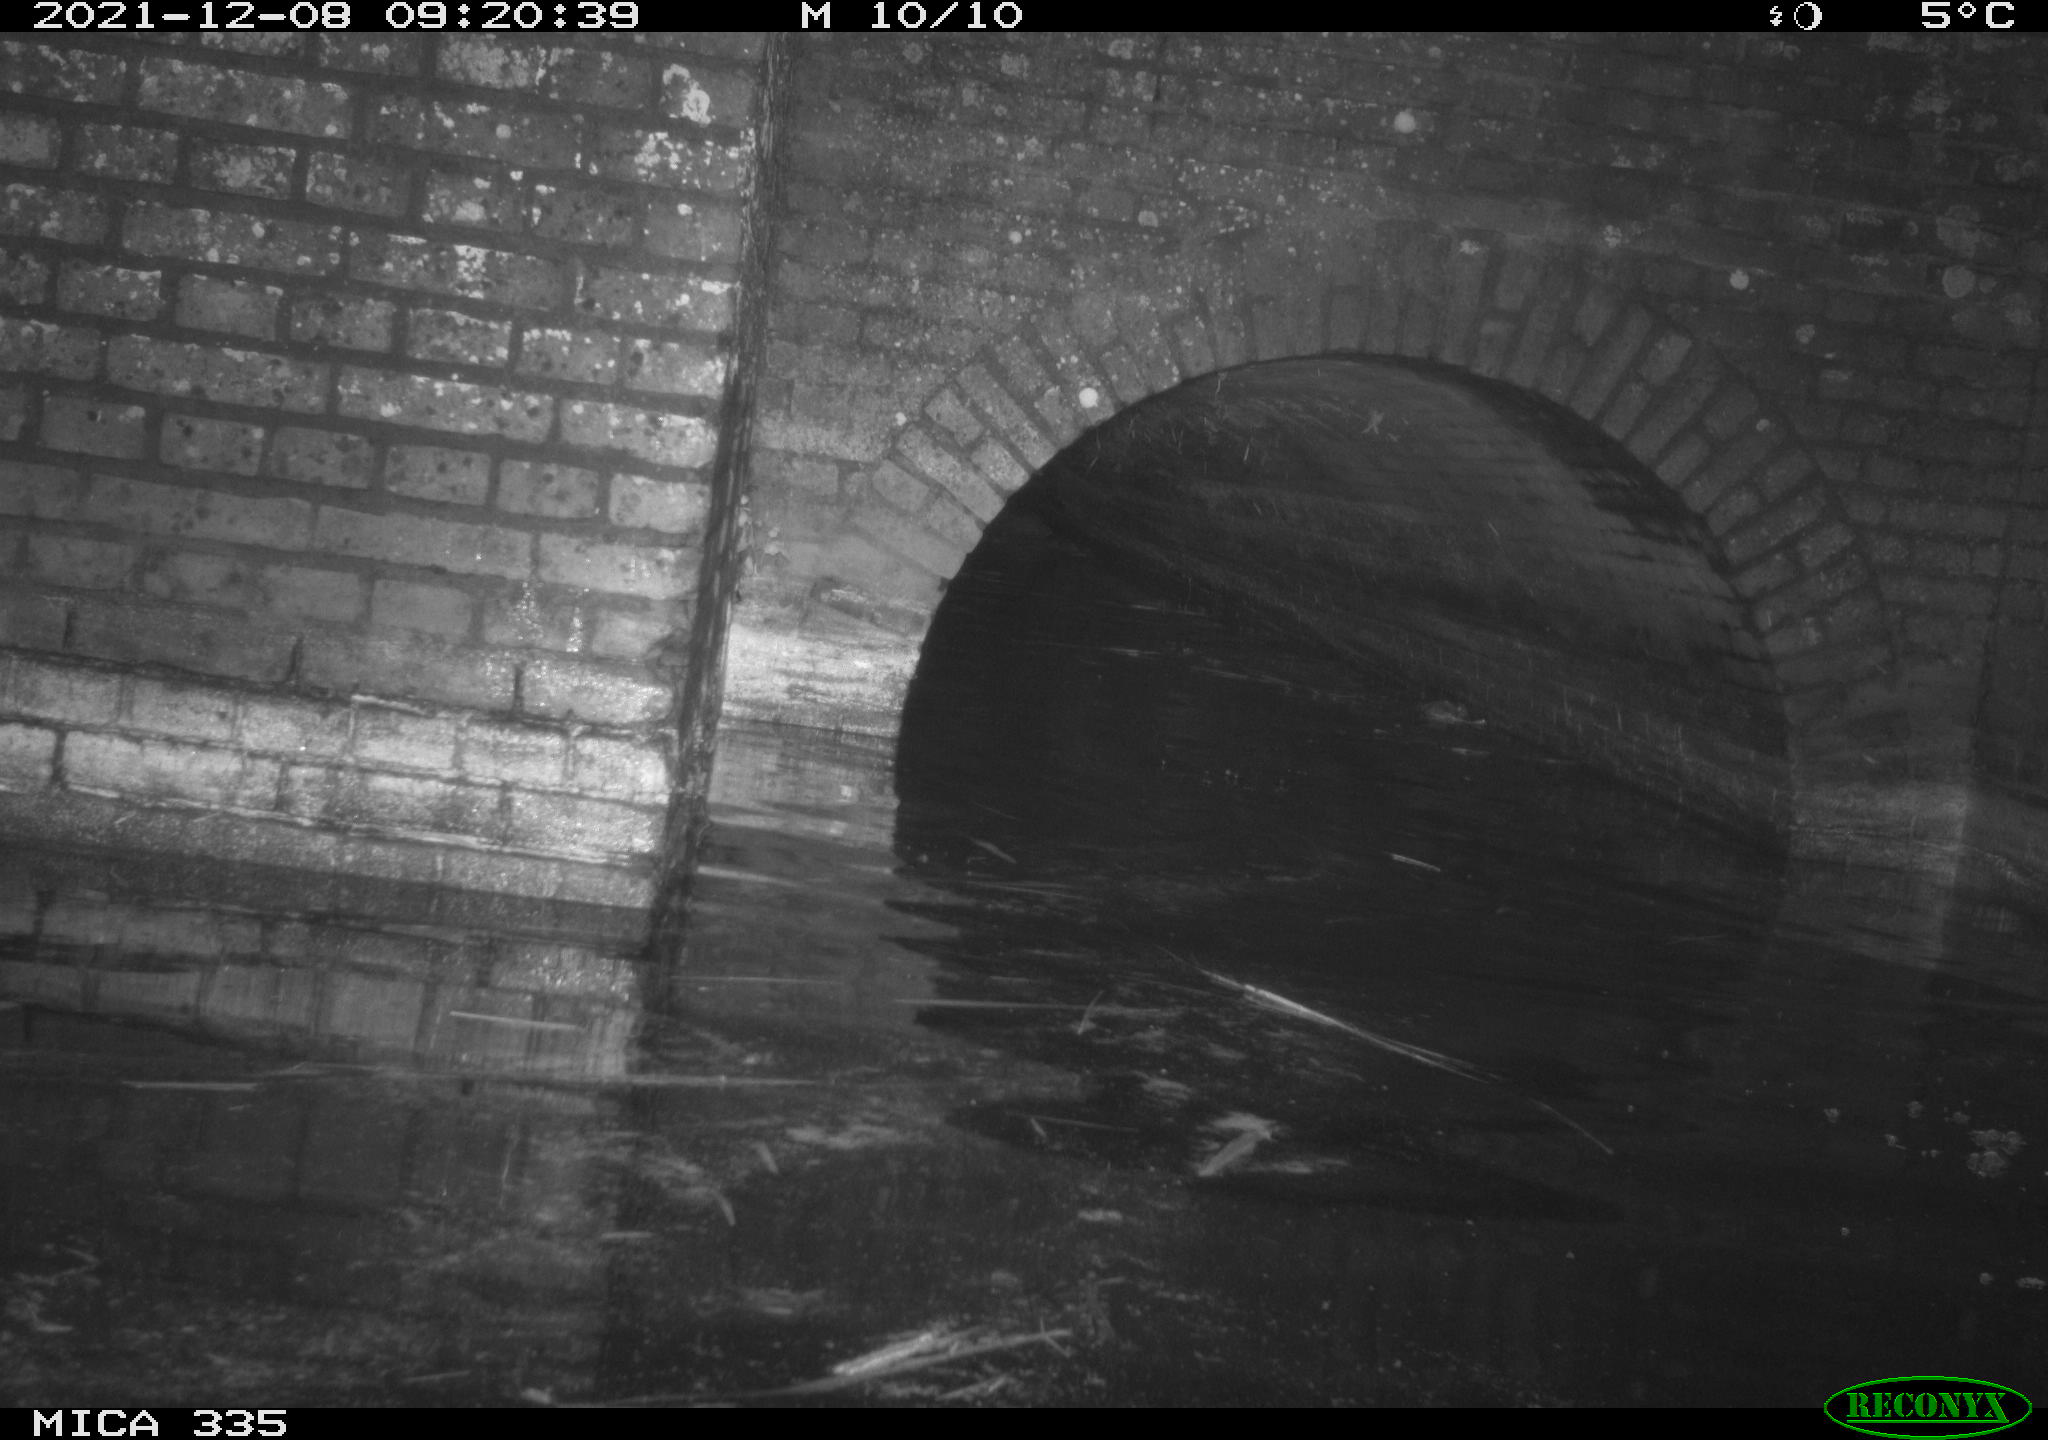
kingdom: Animalia
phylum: Chordata
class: Aves
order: Anseriformes
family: Anatidae
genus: Anas
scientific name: Anas platyrhynchos
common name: Mallard
